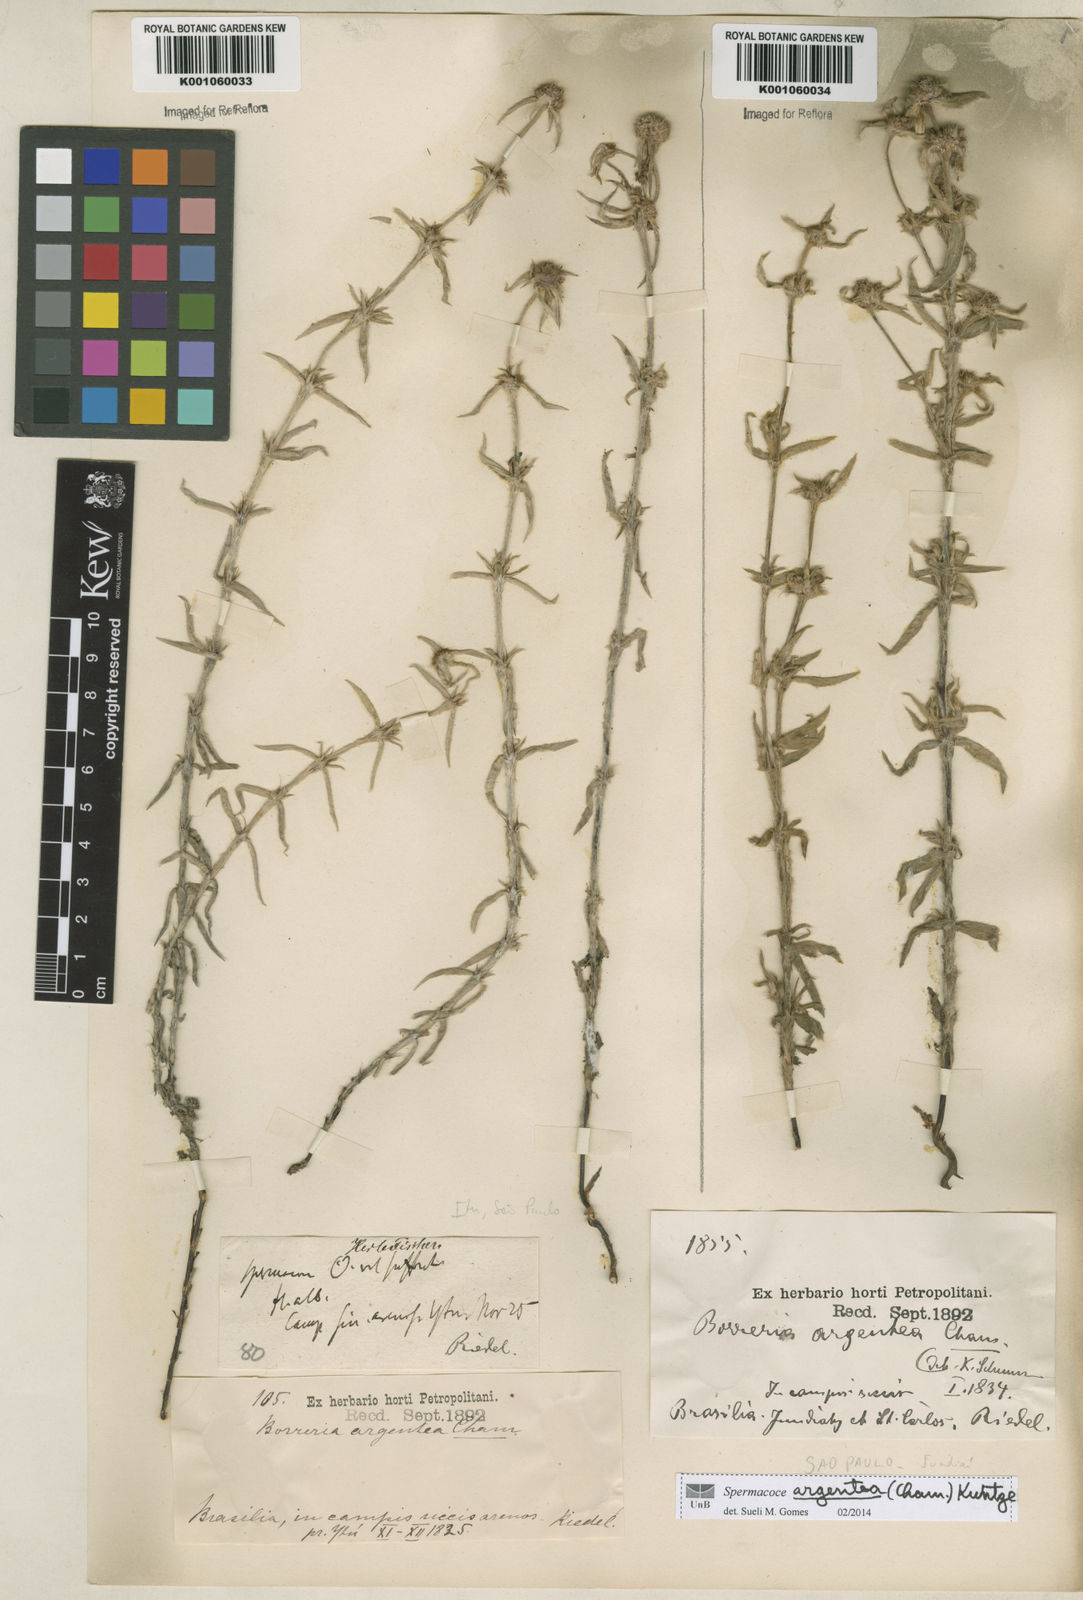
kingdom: Plantae
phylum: Tracheophyta
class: Magnoliopsida
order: Gentianales
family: Rubiaceae
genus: Spermacoce
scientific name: Spermacoce argentea
